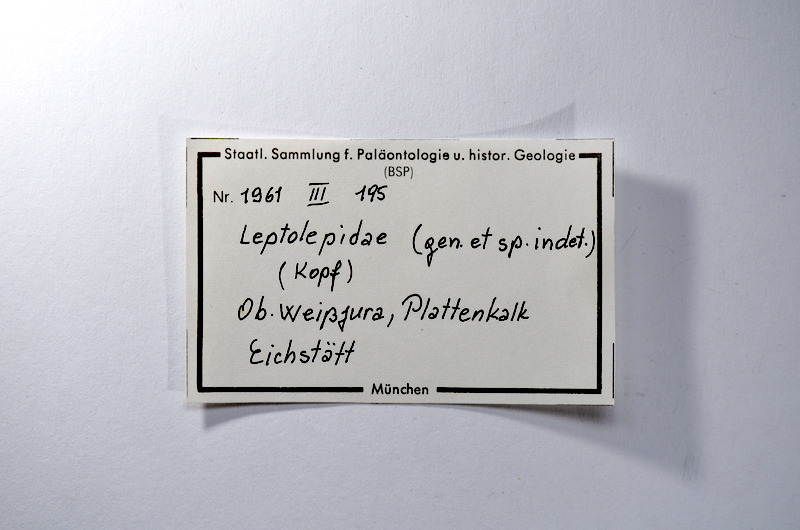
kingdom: Animalia
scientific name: Animalia
